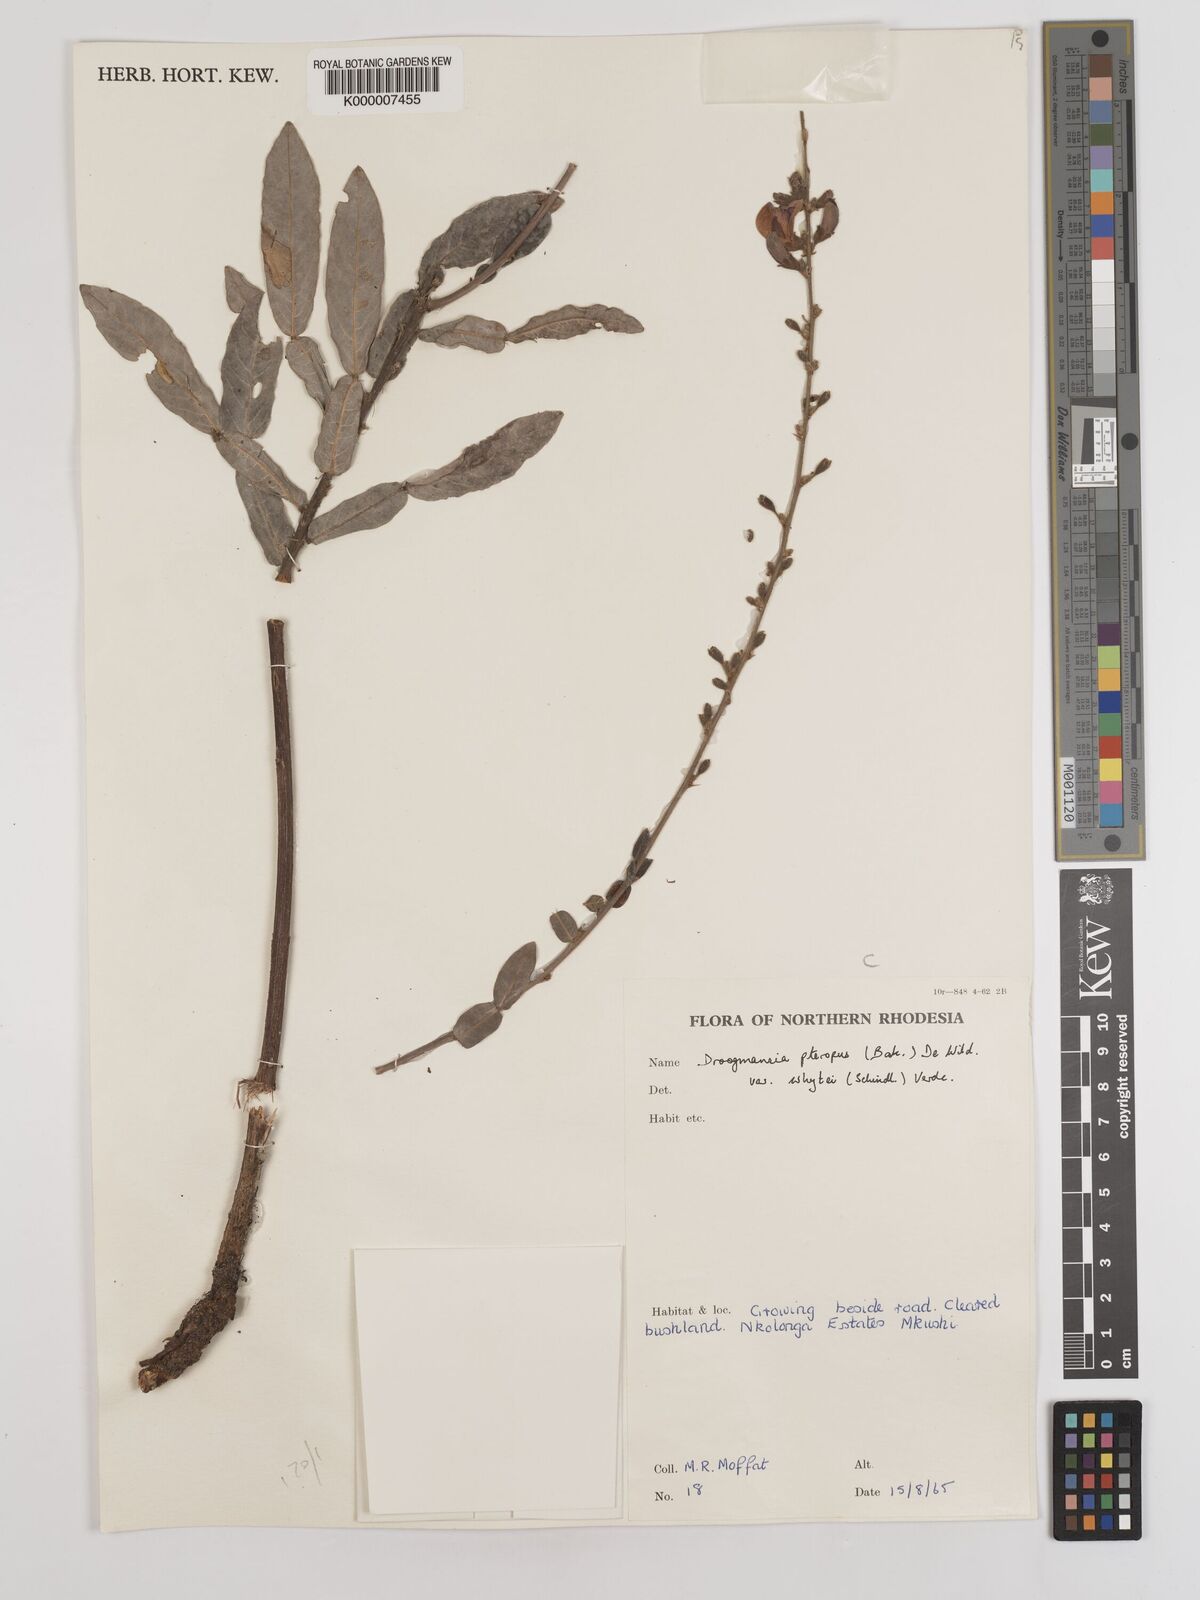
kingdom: Plantae
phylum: Tracheophyta
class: Magnoliopsida
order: Fabales
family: Fabaceae
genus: Droogmansia
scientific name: Droogmansia pteropus
